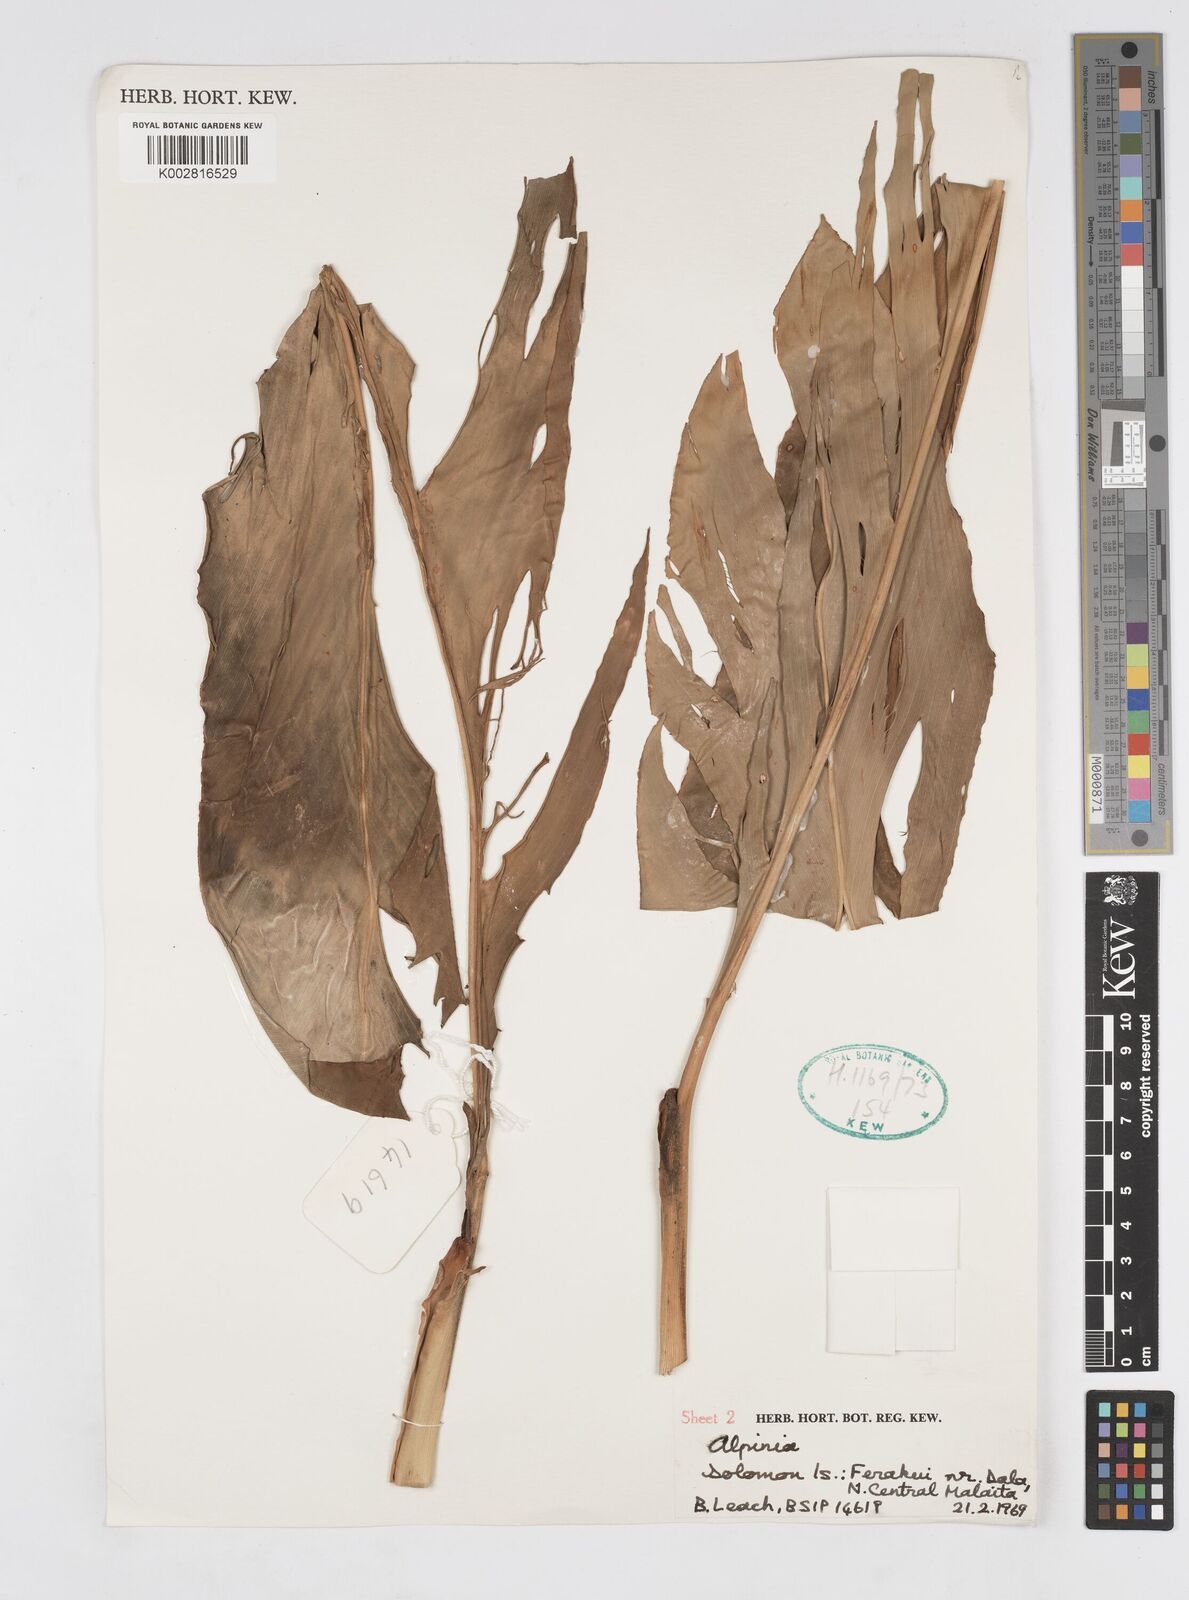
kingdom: Plantae
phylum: Tracheophyta
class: Liliopsida
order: Zingiberales
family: Zingiberaceae
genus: Alpinia
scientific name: Alpinia purpurata
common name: Red ginger
